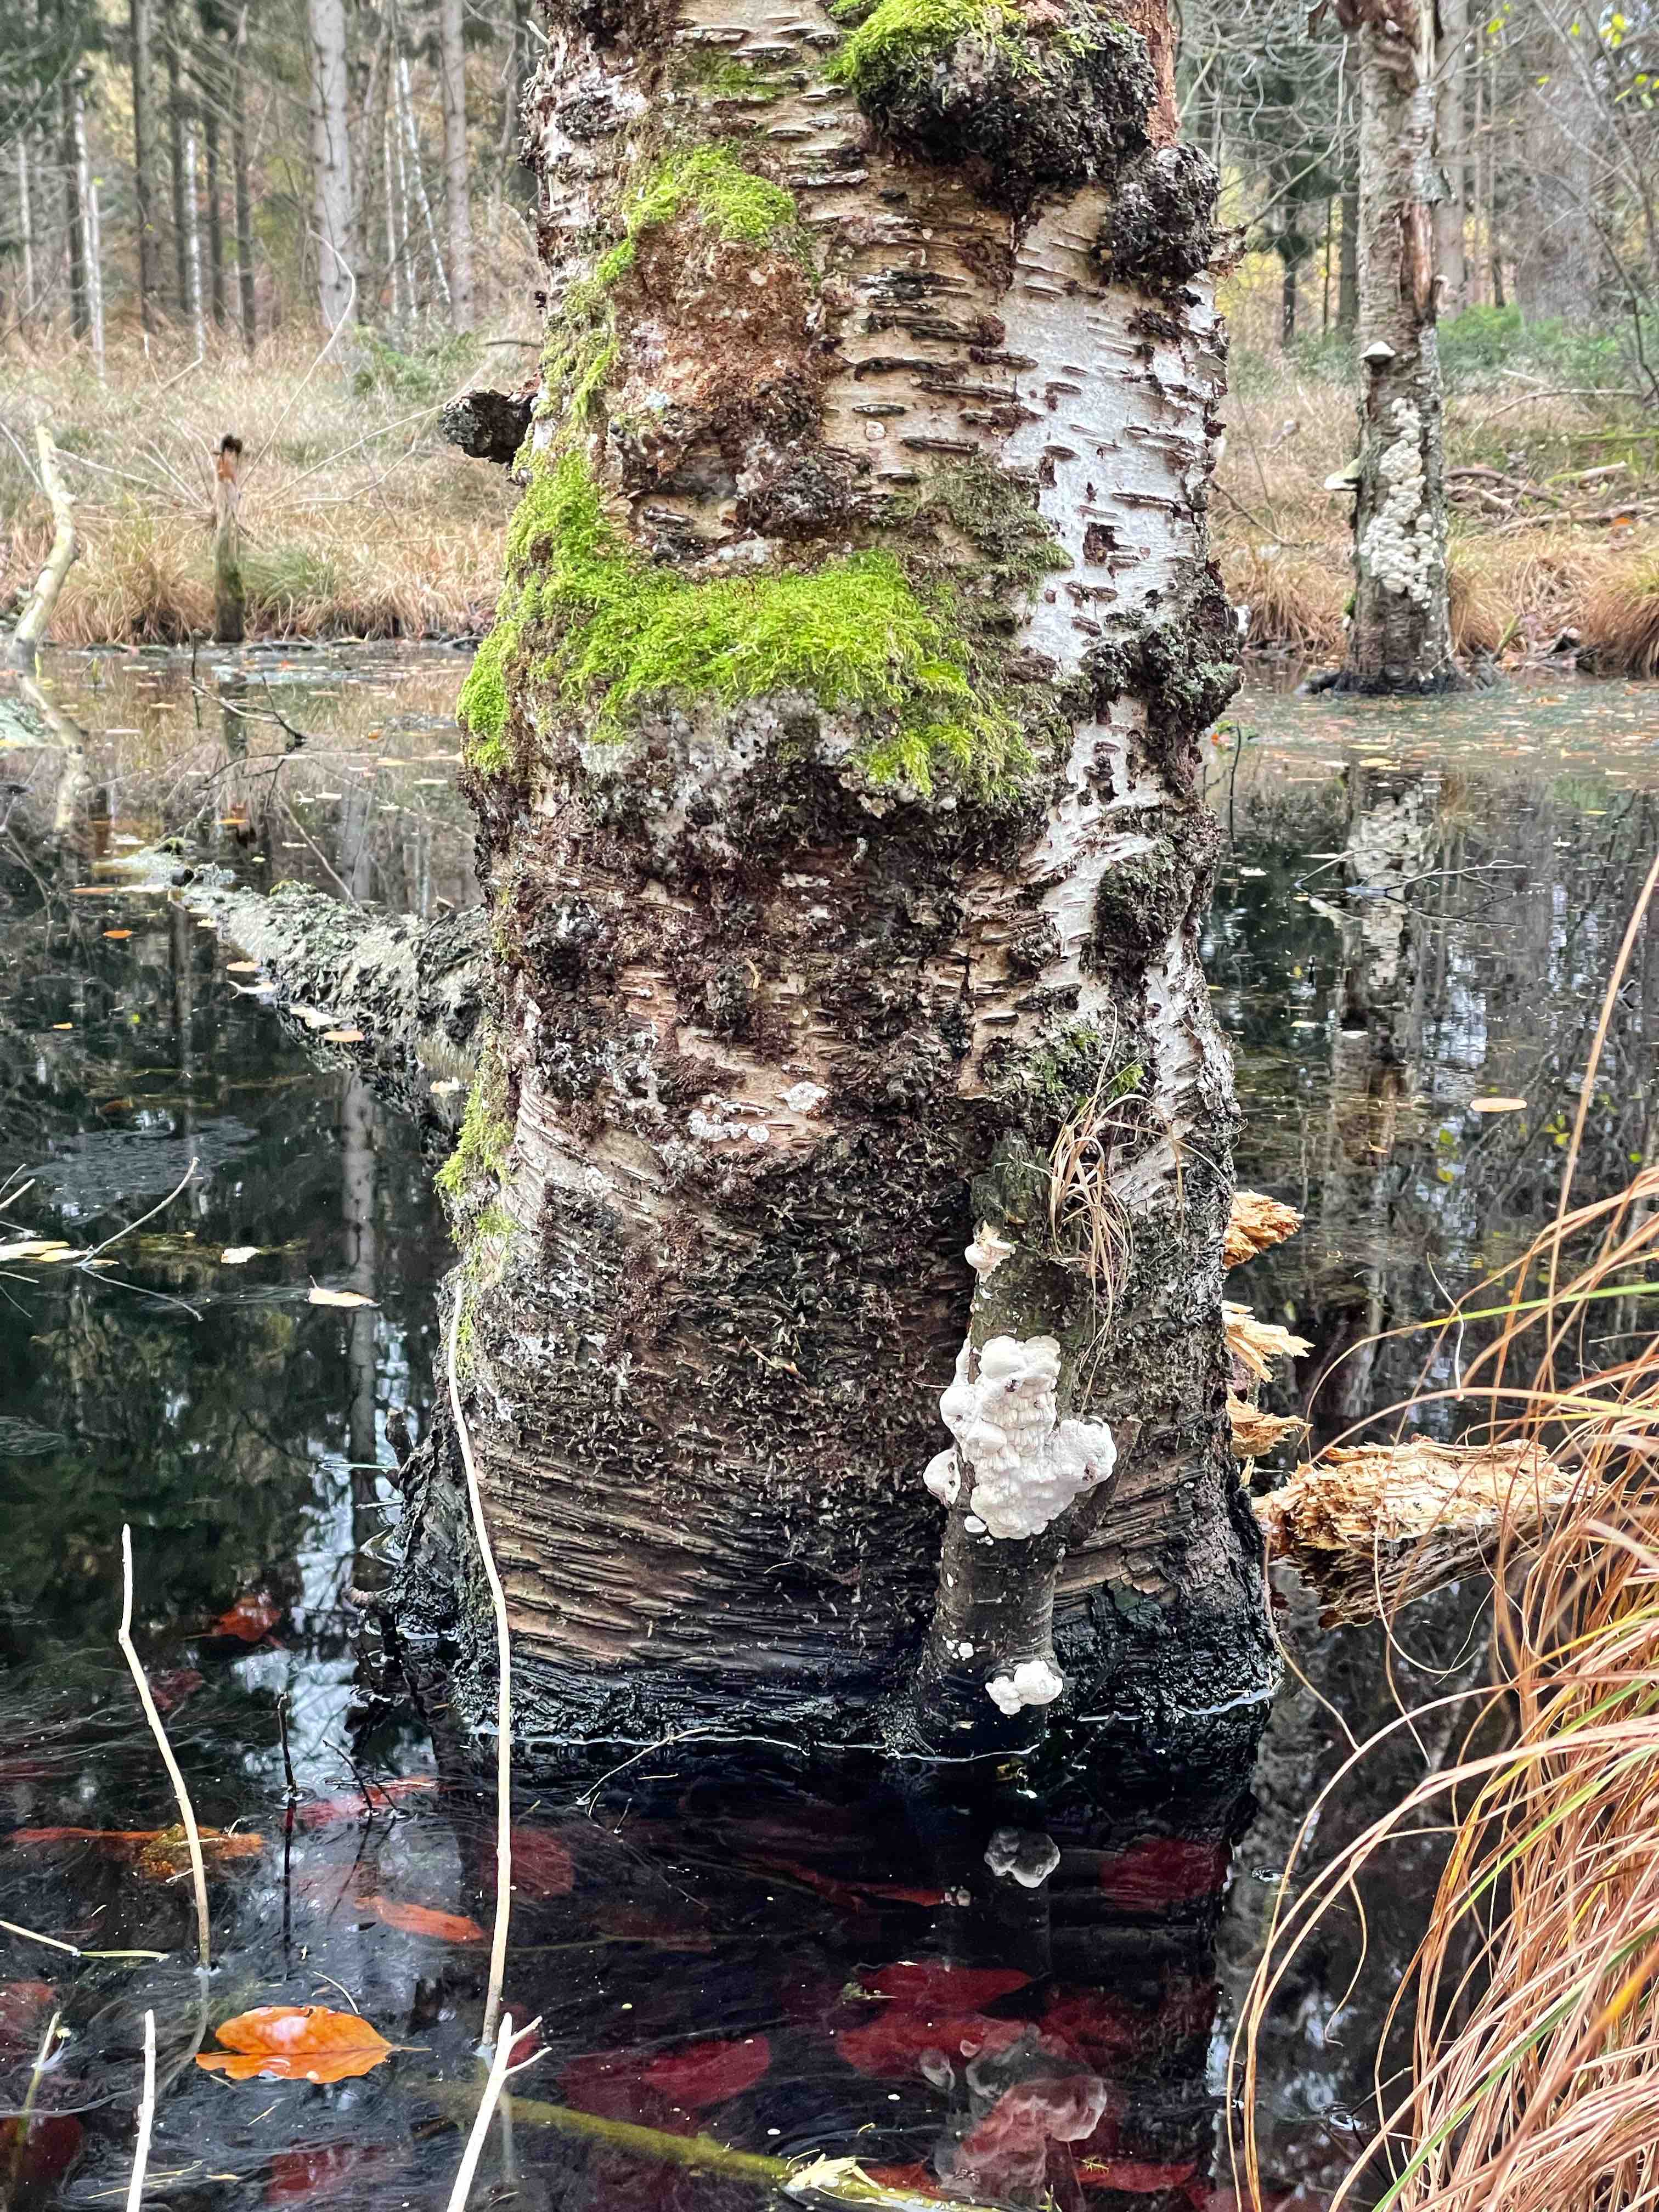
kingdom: Fungi
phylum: Basidiomycota
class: Agaricomycetes
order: Polyporales
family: Irpicaceae
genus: Irpex
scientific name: Irpex latemarginatus
